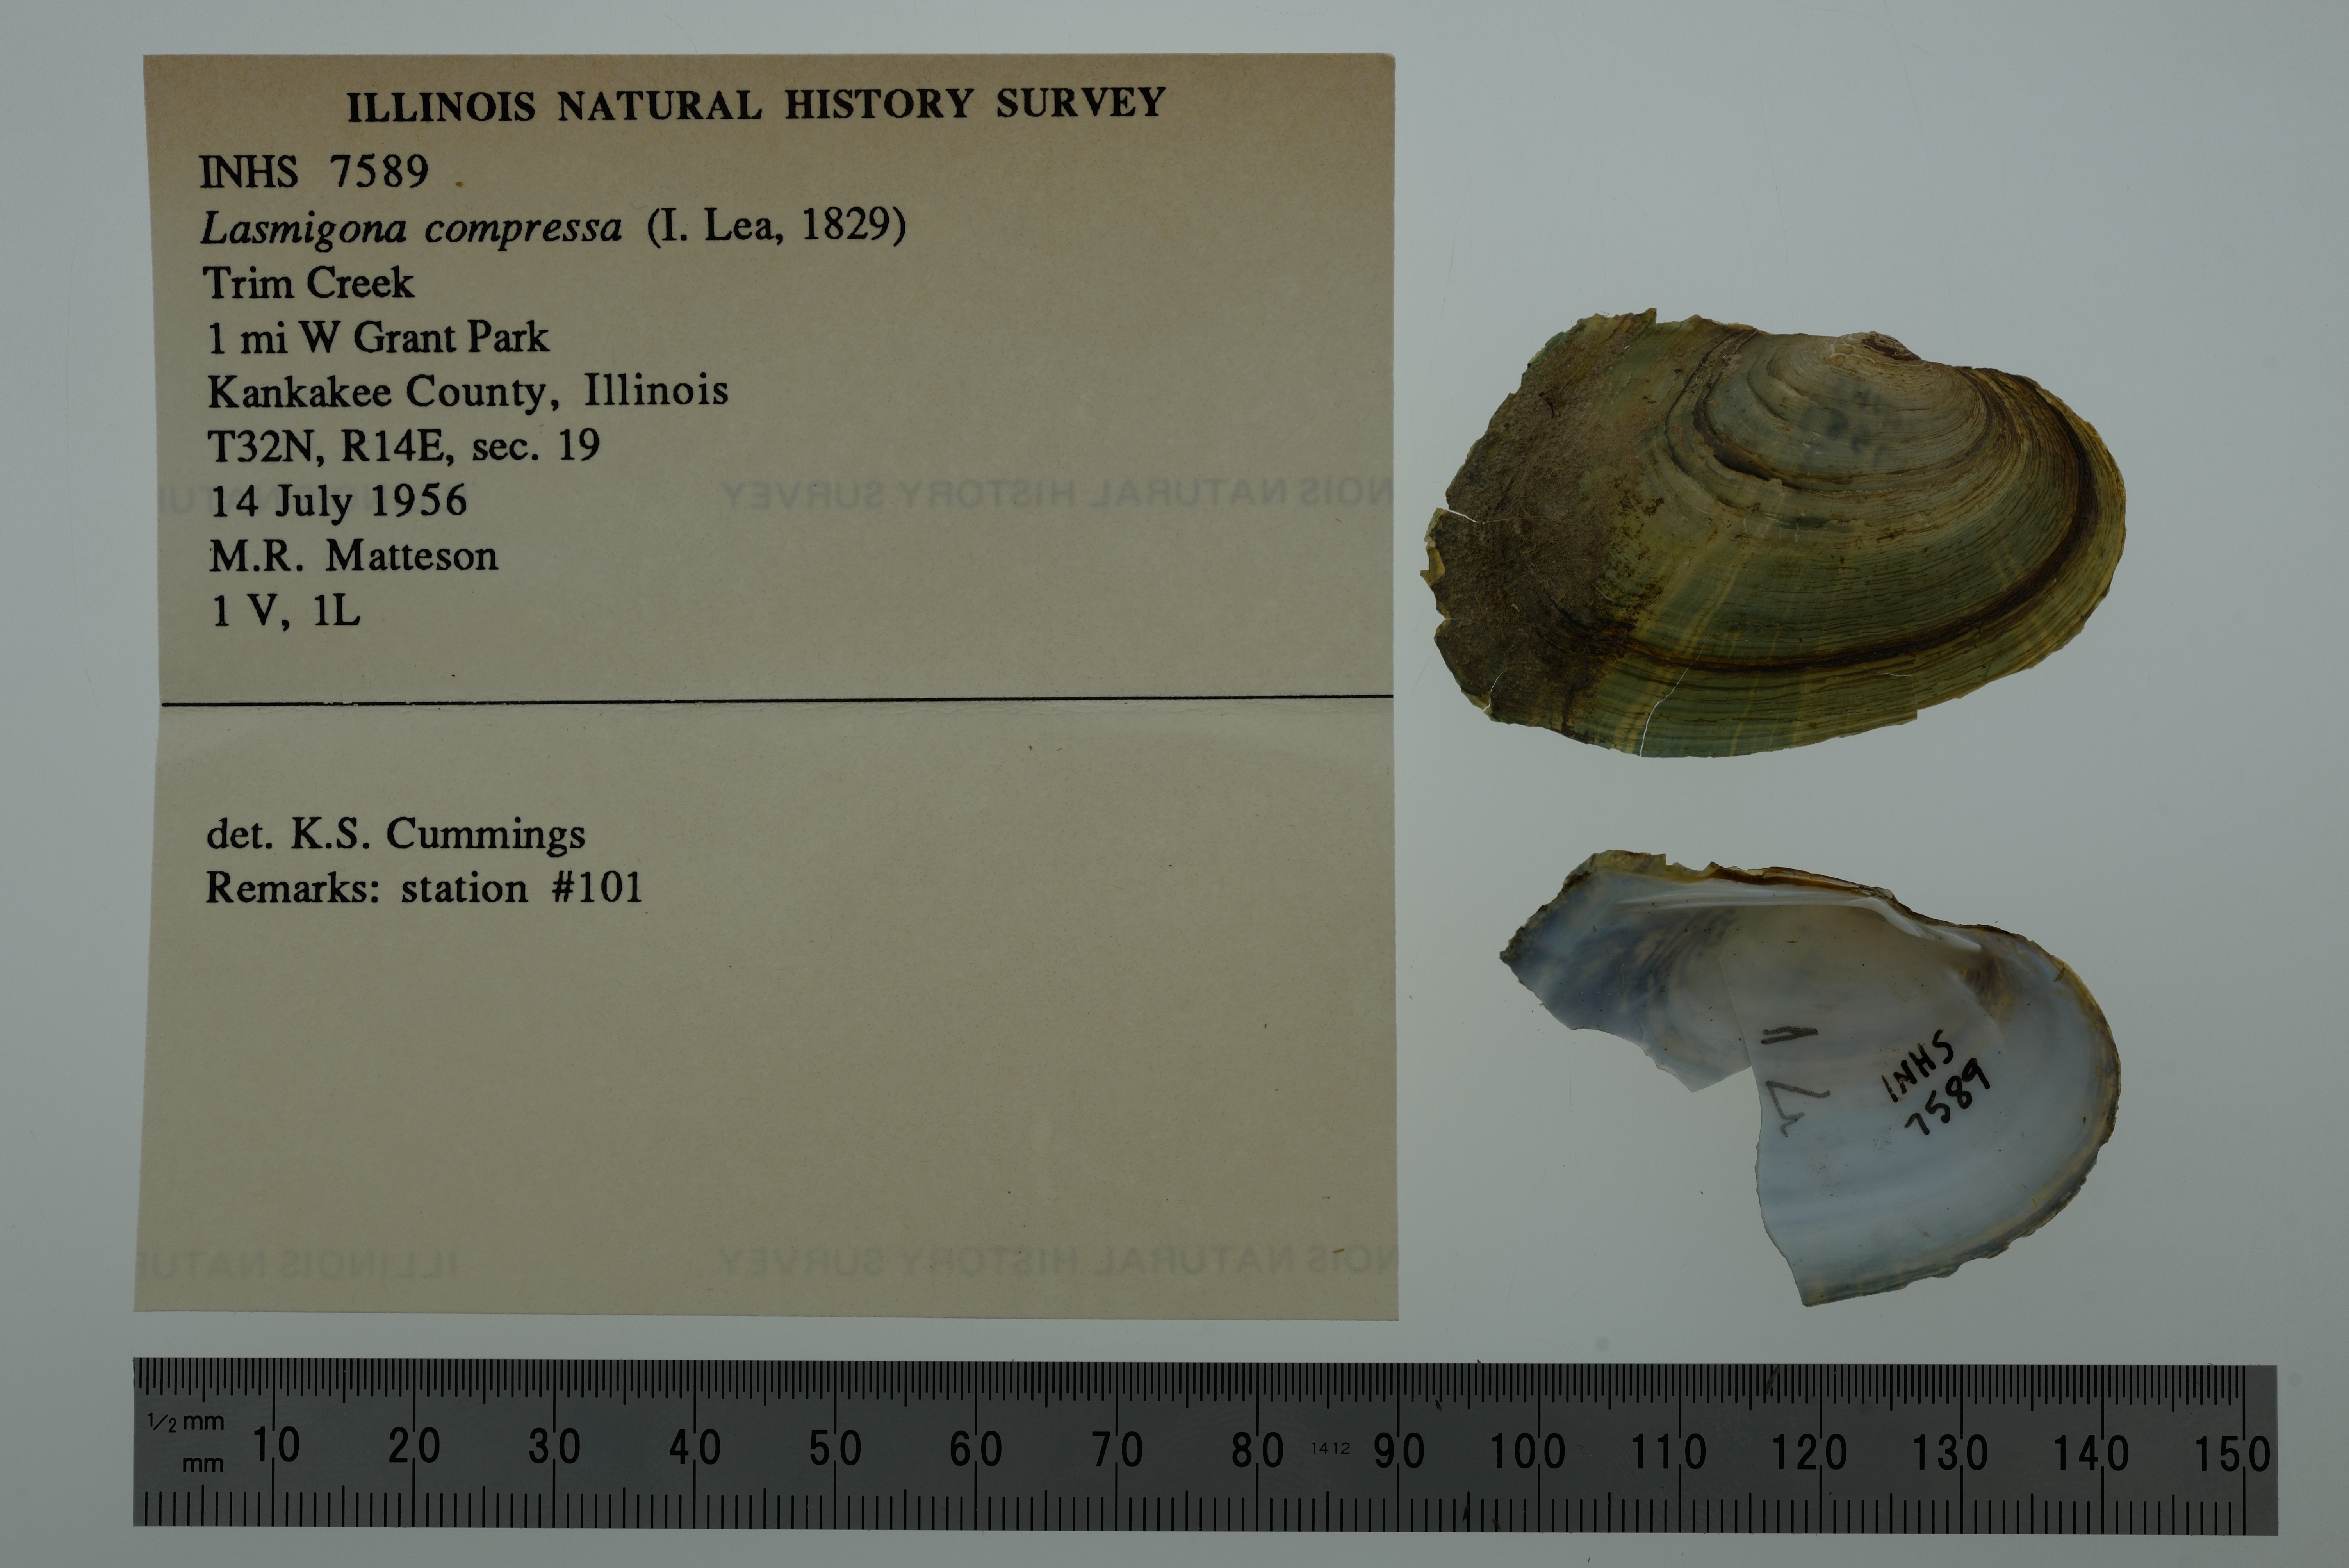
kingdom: Animalia
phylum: Mollusca
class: Bivalvia
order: Unionida
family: Unionidae
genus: Lasmigona
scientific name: Lasmigona compressa
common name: Creek heelsplitter
